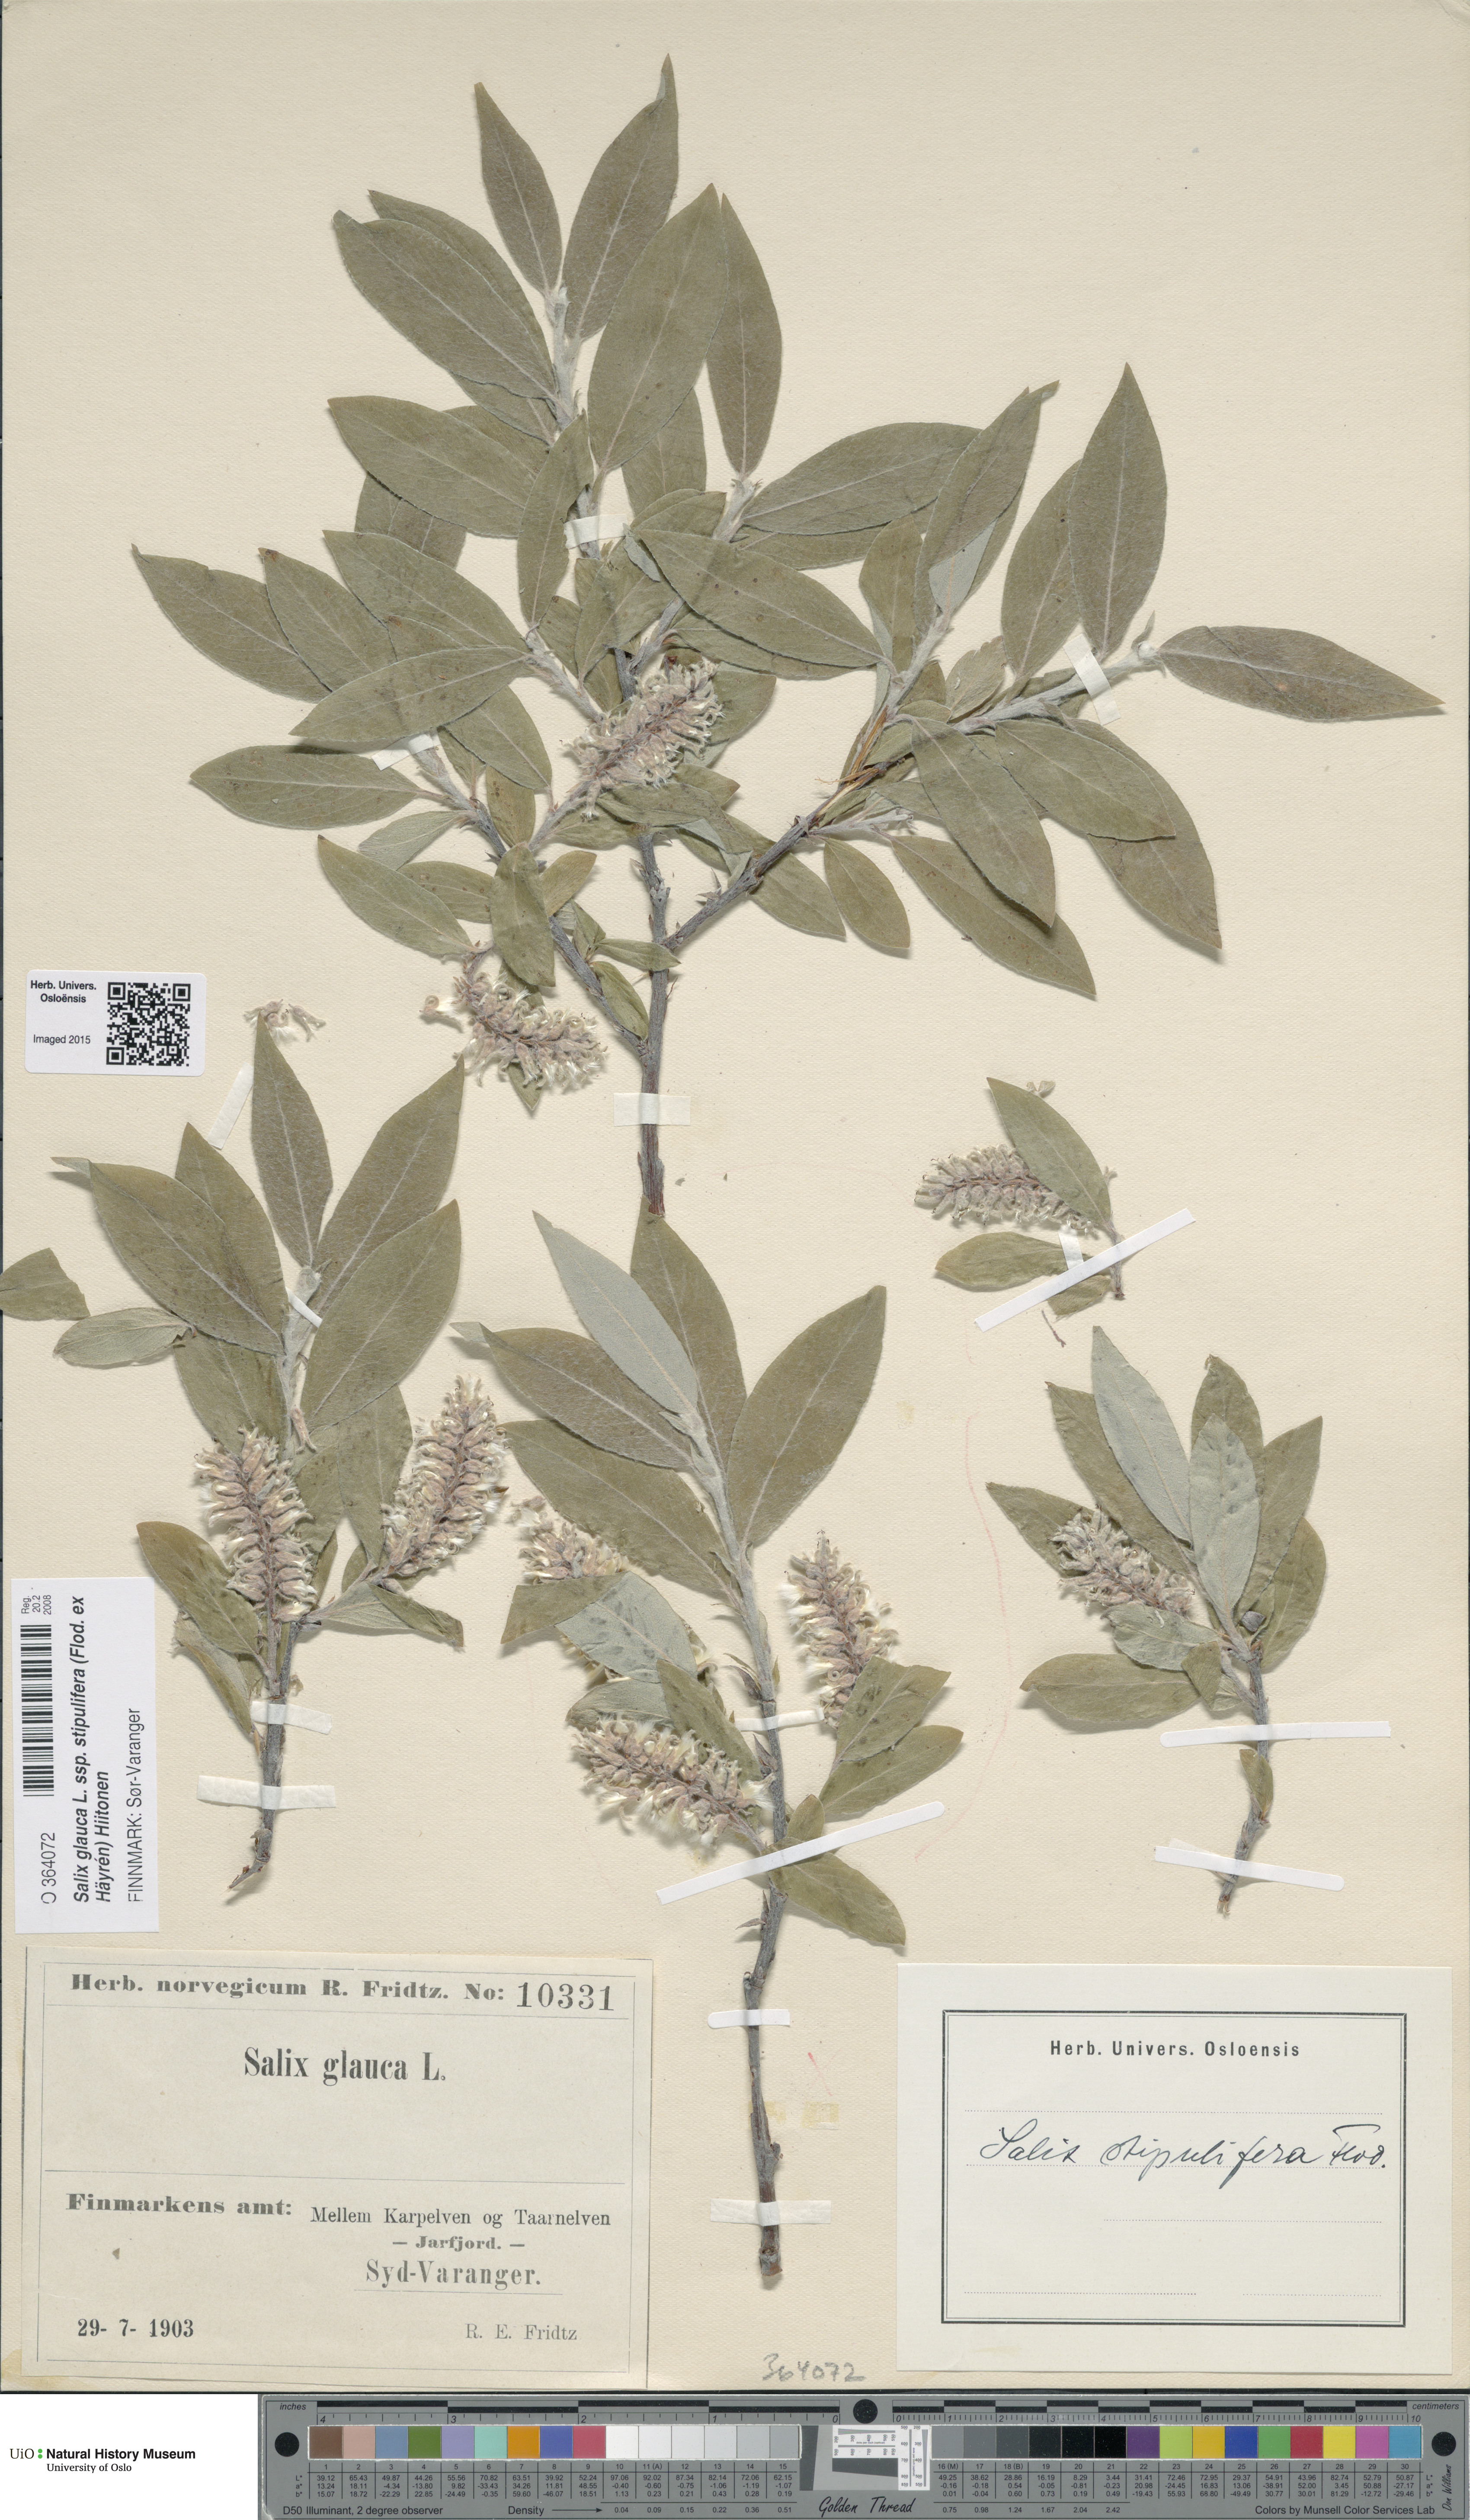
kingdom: Plantae
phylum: Tracheophyta
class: Magnoliopsida
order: Malpighiales
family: Salicaceae
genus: Salix
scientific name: Salix glauca
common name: Glaucous willow
